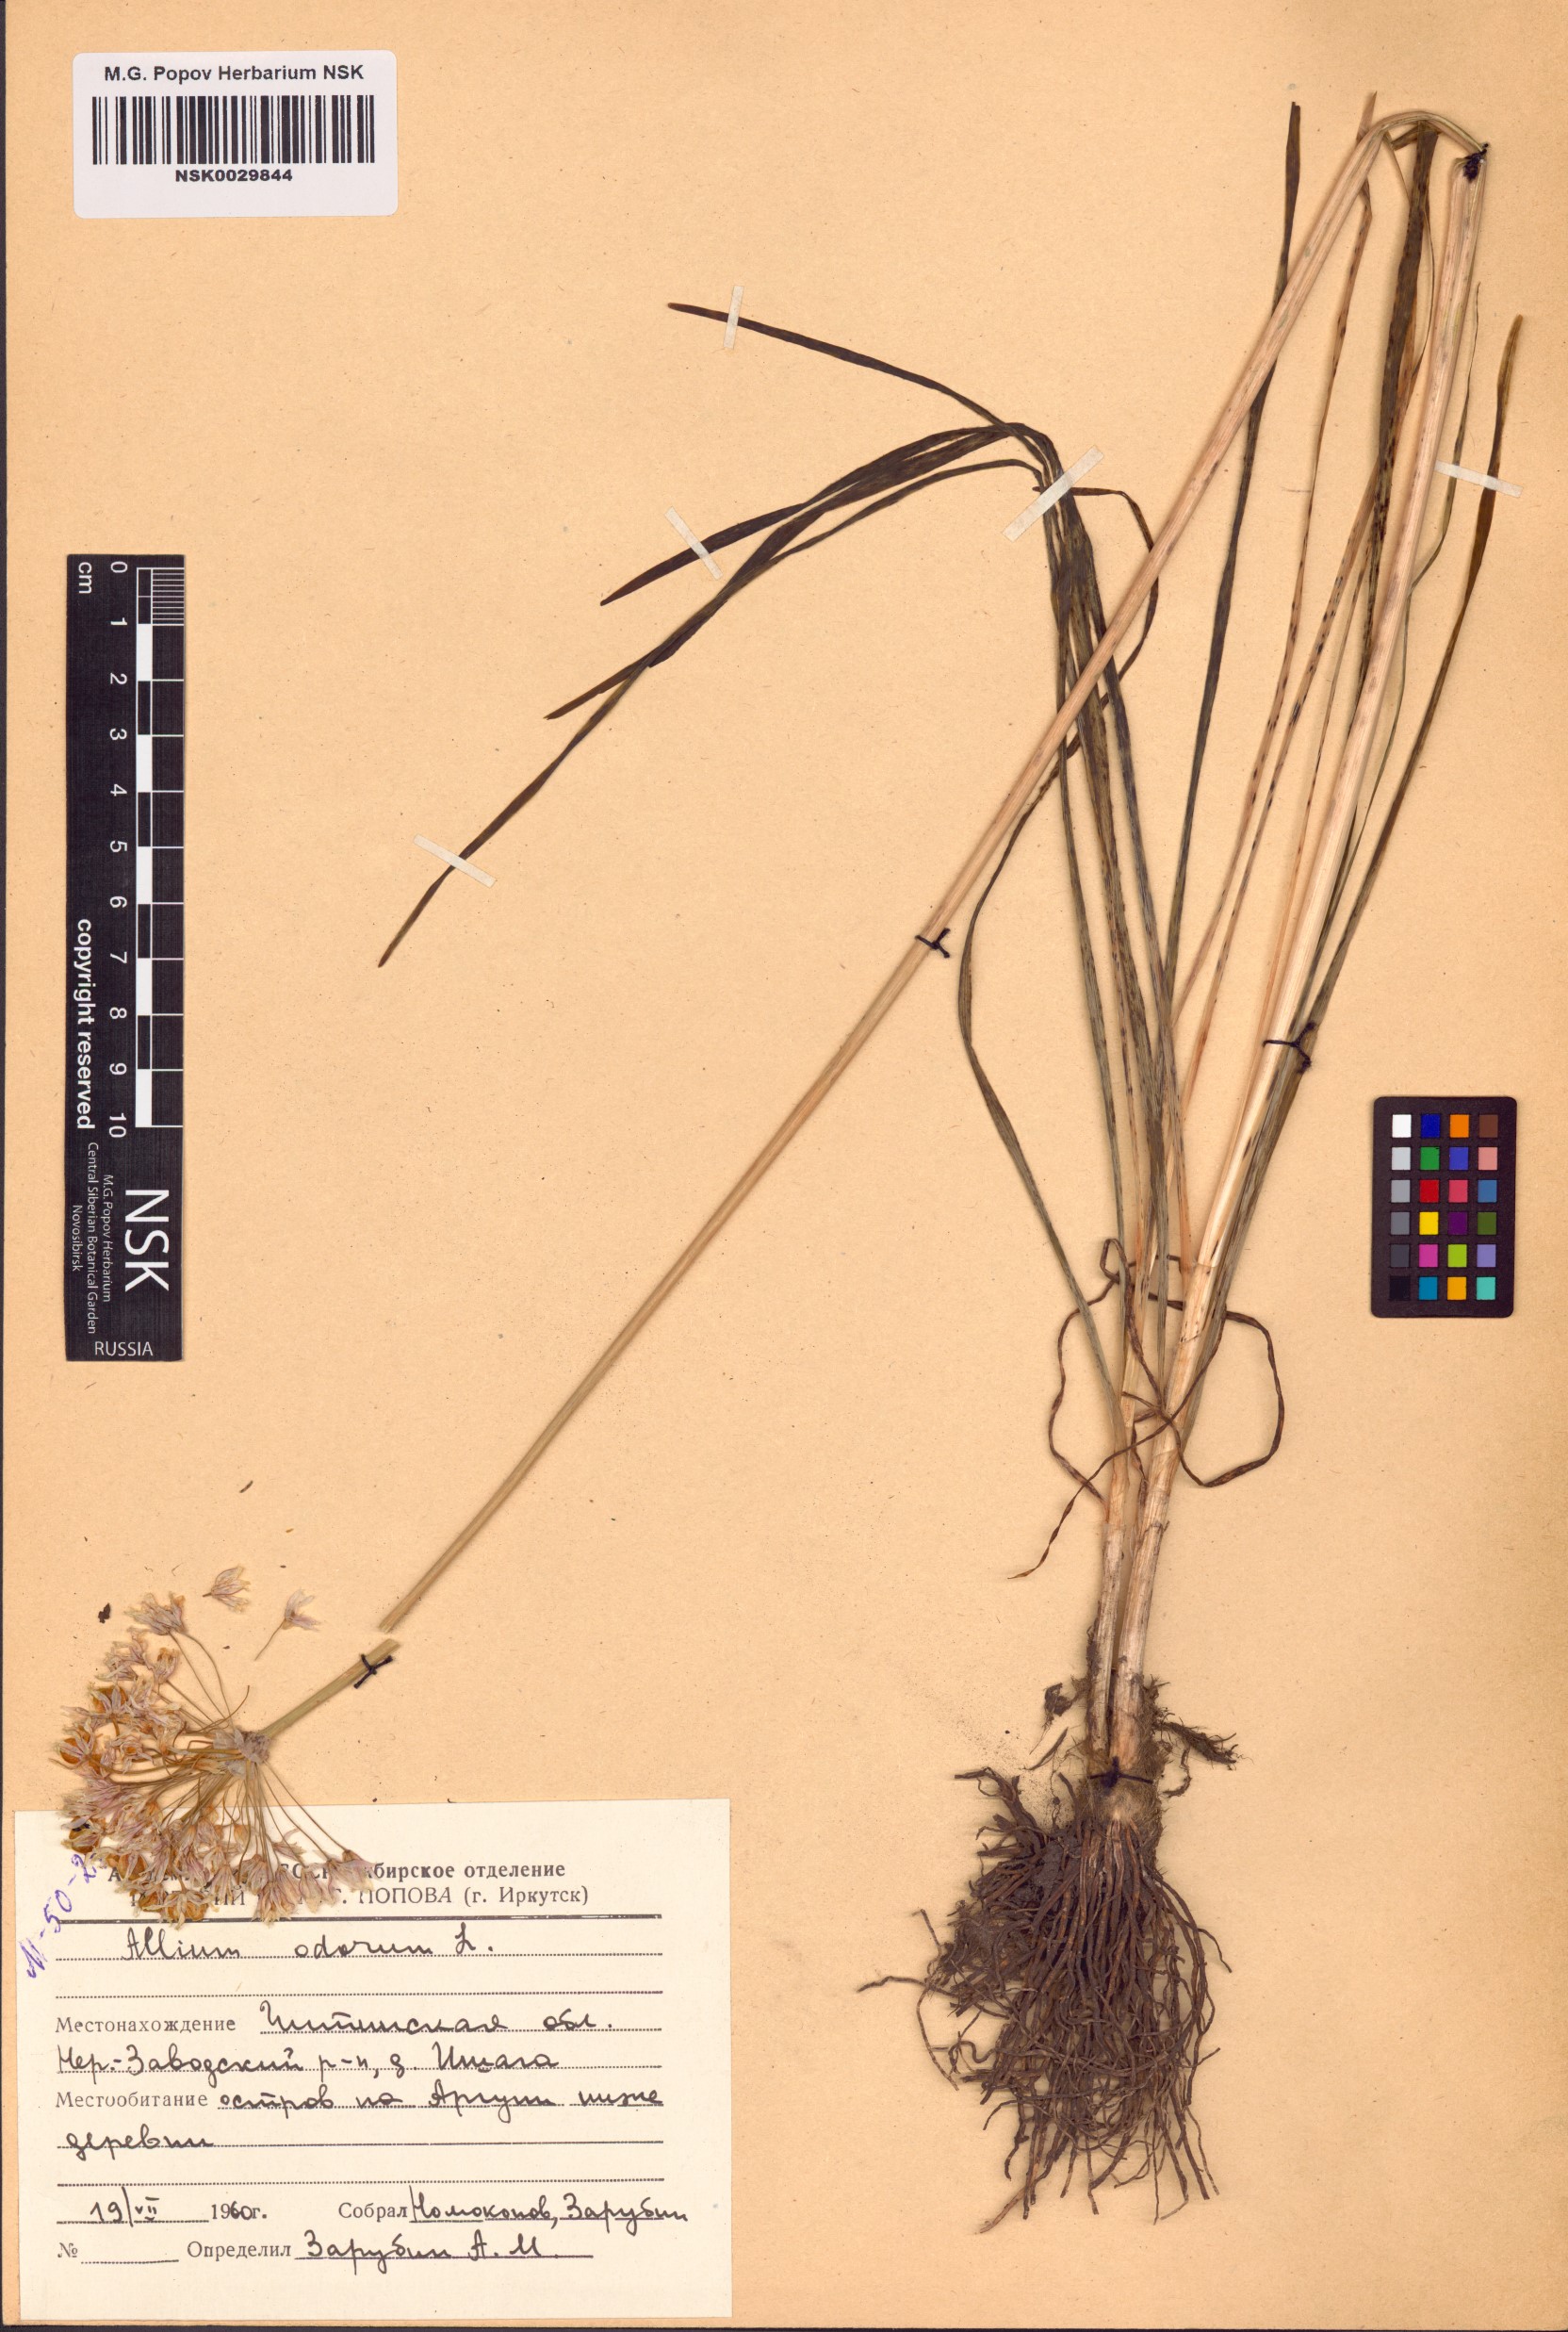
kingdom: Plantae
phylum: Tracheophyta
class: Liliopsida
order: Asparagales
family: Amaryllidaceae
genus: Allium
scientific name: Allium ramosum
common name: Fragrant garlic
